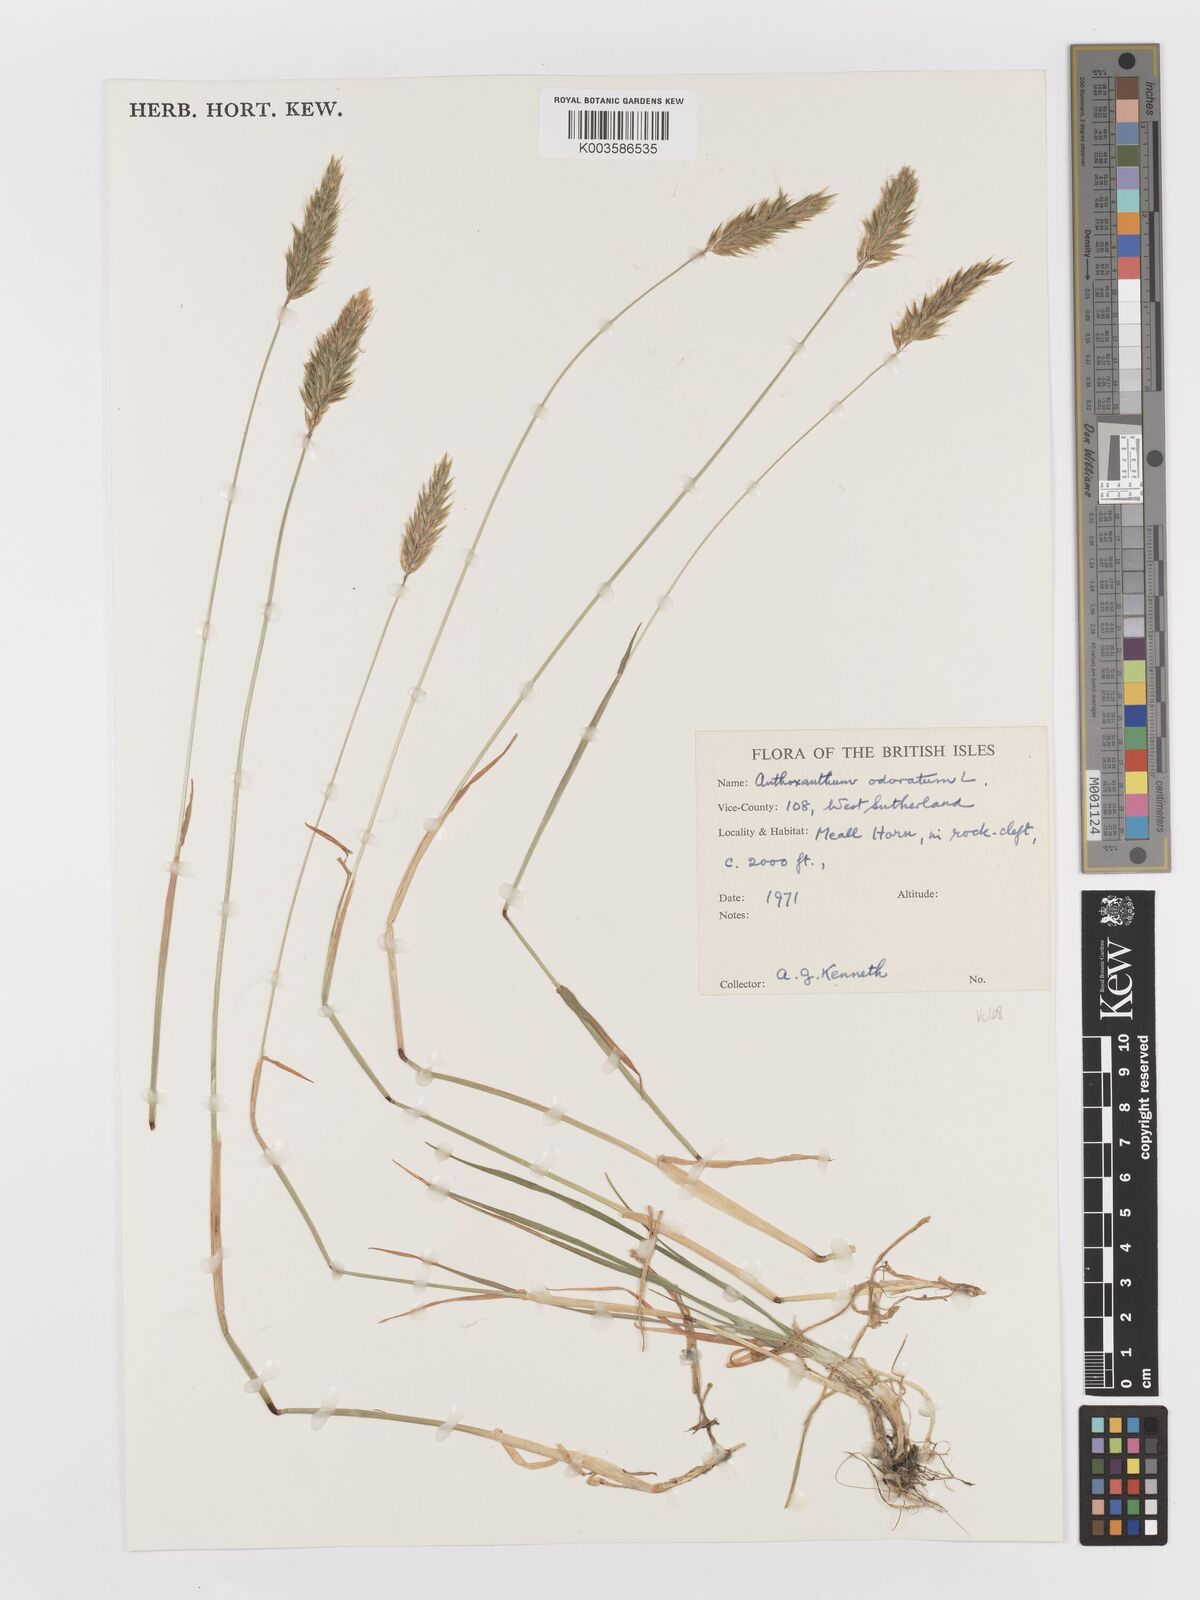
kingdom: Plantae
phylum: Tracheophyta
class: Liliopsida
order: Poales
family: Poaceae
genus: Anthoxanthum
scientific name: Anthoxanthum odoratum
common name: Sweet vernalgrass
